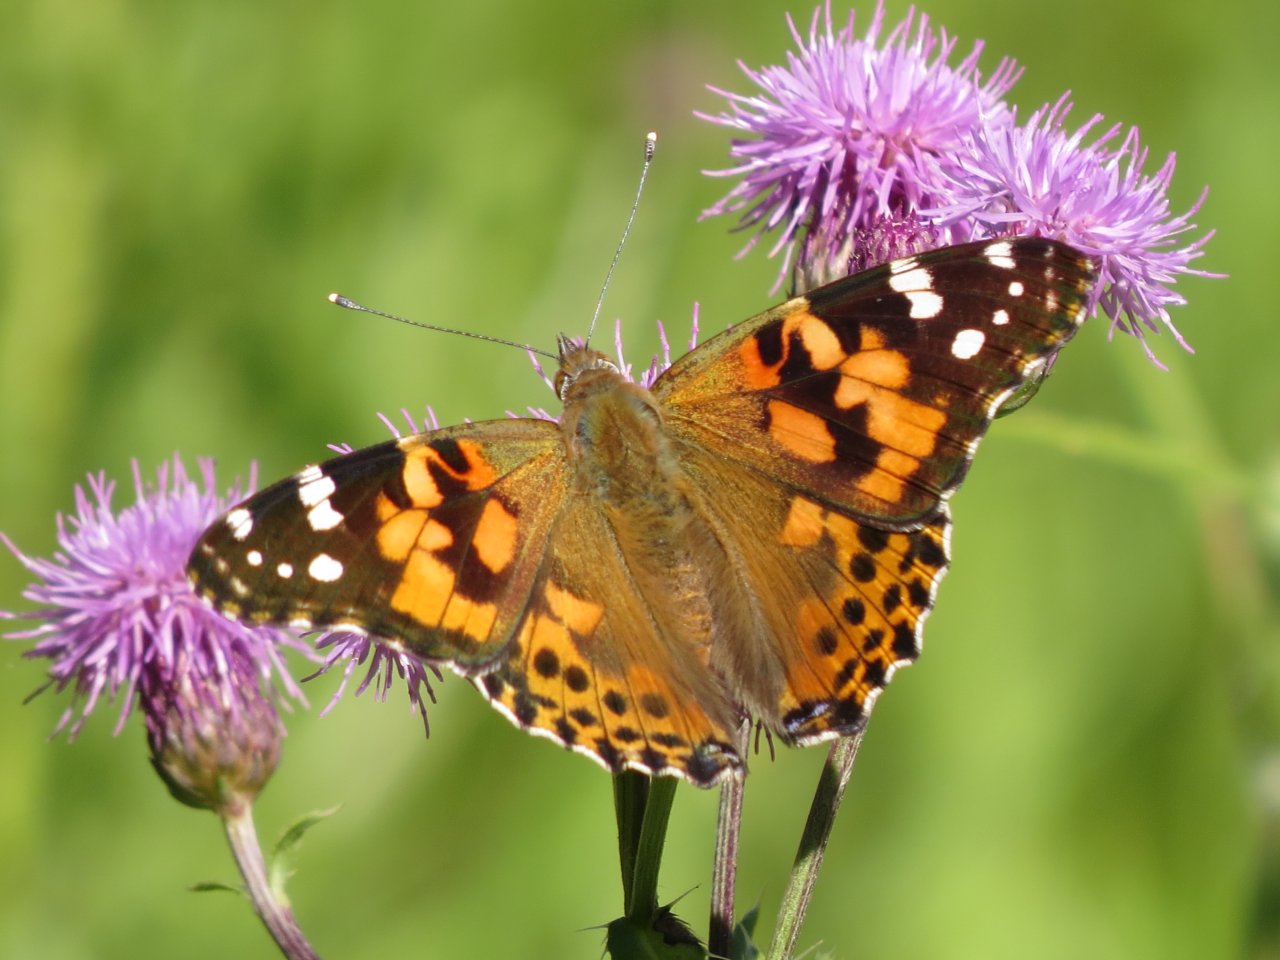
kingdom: Animalia
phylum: Arthropoda
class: Insecta
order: Lepidoptera
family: Nymphalidae
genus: Vanessa
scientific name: Vanessa cardui
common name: Painted Lady
